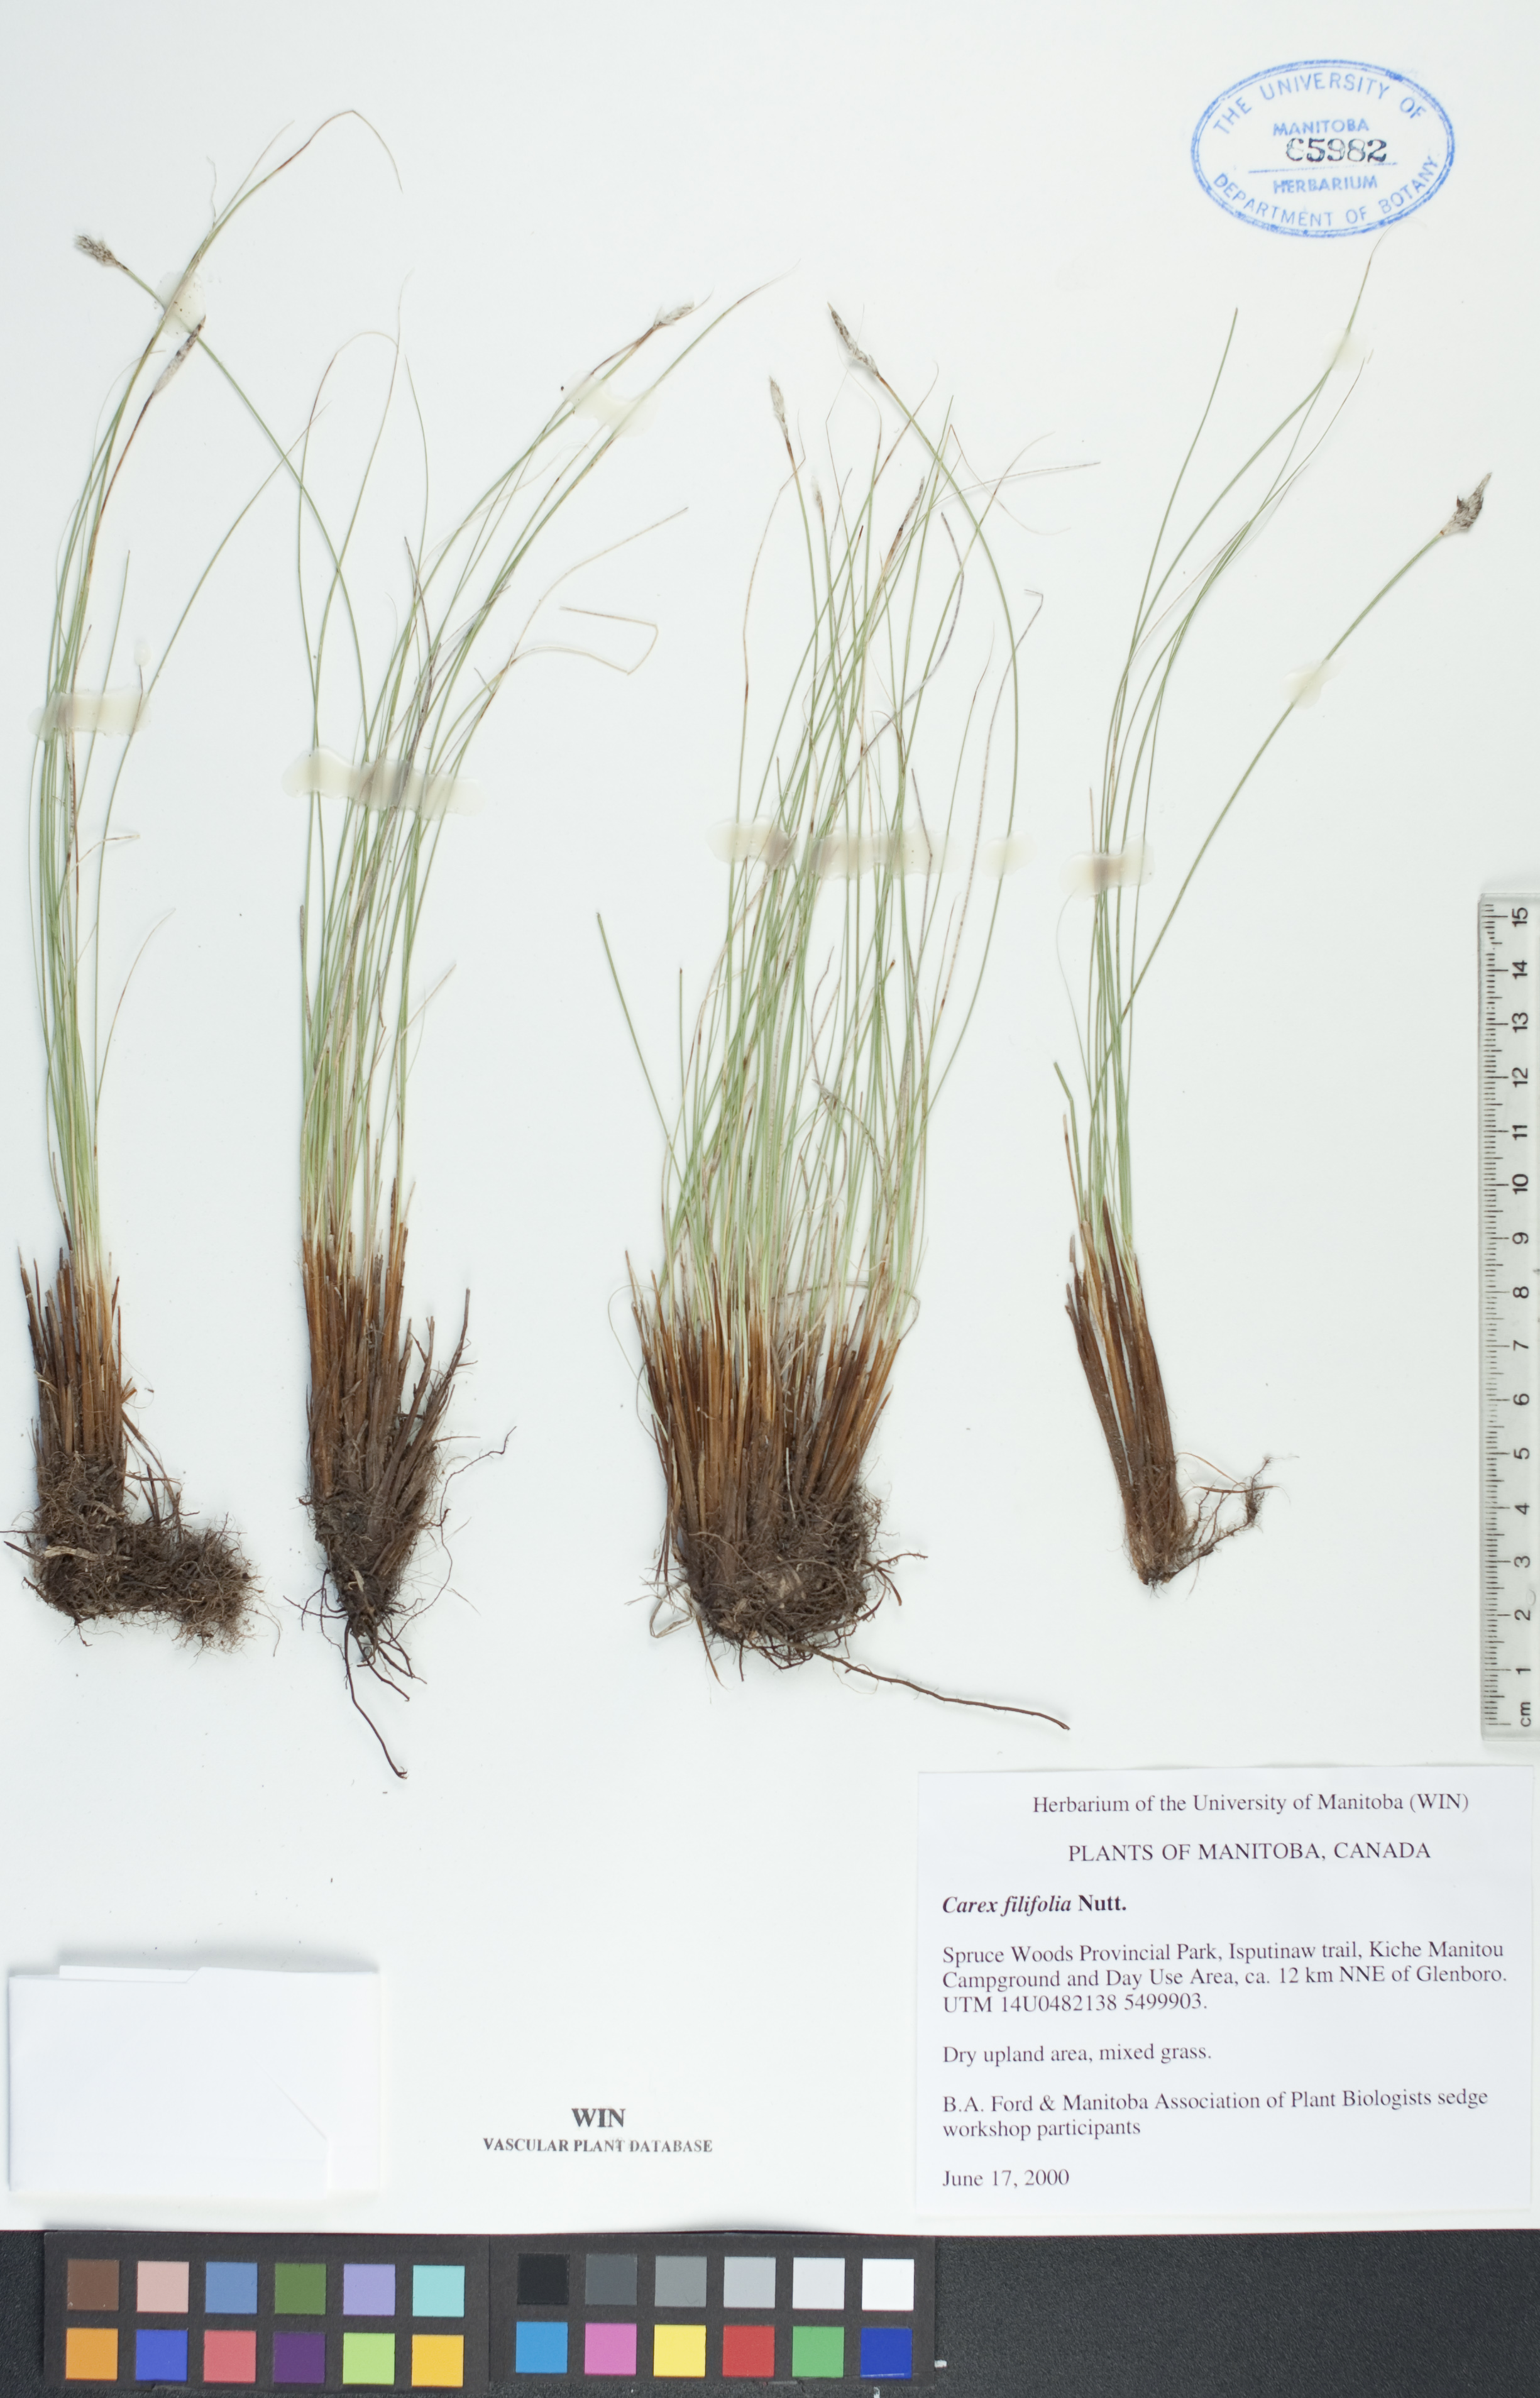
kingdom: Plantae
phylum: Tracheophyta
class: Liliopsida
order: Poales
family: Cyperaceae
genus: Carex
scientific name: Carex filifolia
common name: Threadleaf sedge
